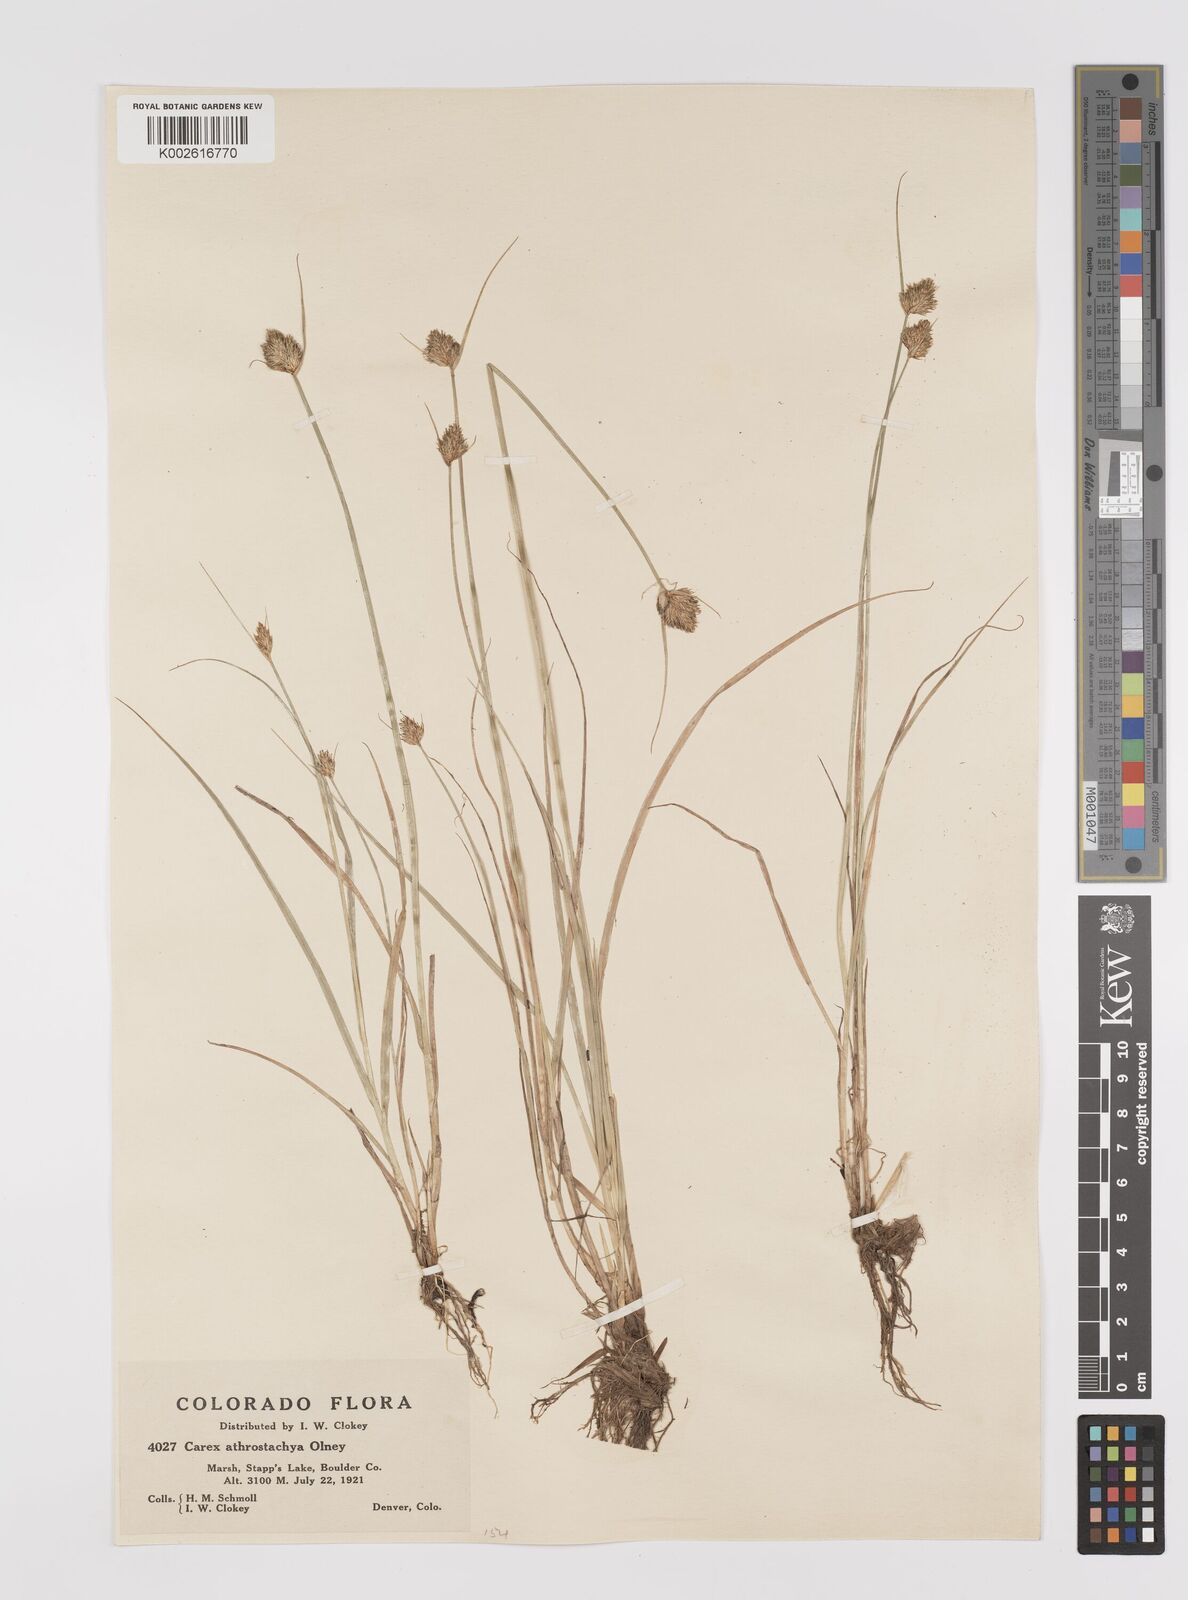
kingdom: Plantae
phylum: Tracheophyta
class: Liliopsida
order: Poales
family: Cyperaceae
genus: Carex
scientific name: Carex athrostachya
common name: Slenderbeak sedge
